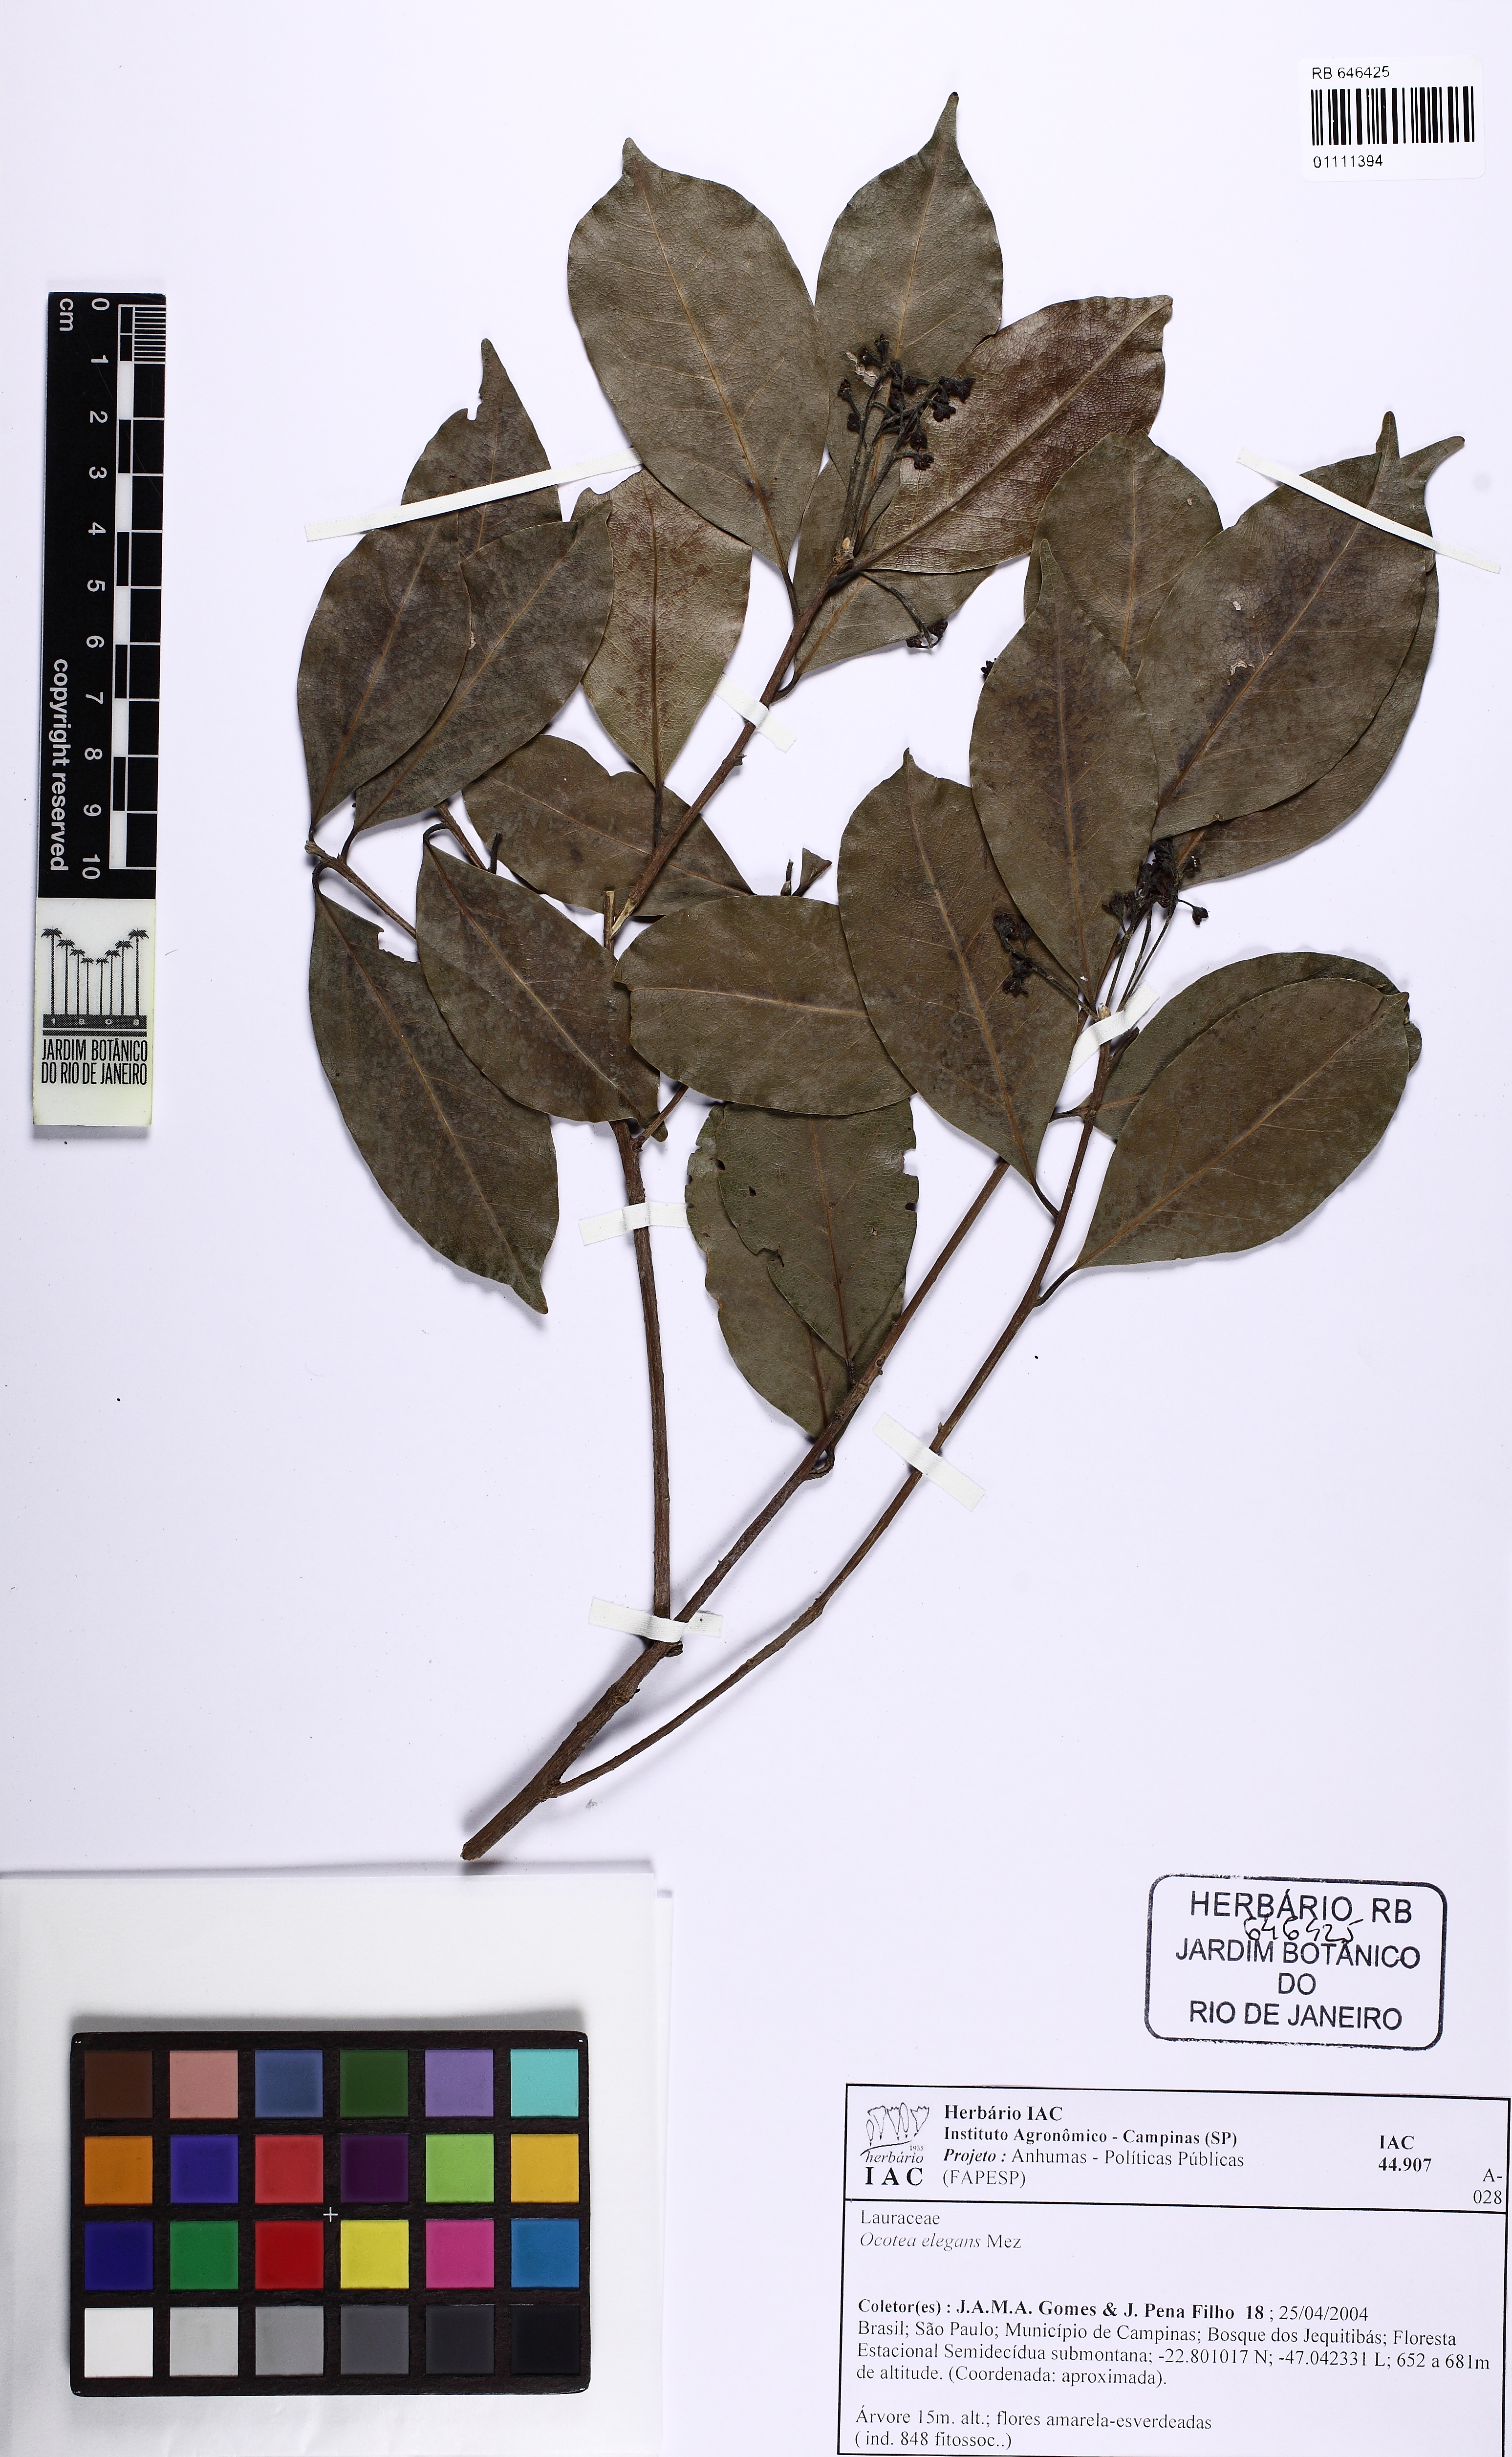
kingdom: Plantae
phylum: Tracheophyta
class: Magnoliopsida
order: Laurales
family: Lauraceae
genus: Ocotea
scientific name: Ocotea elegans
